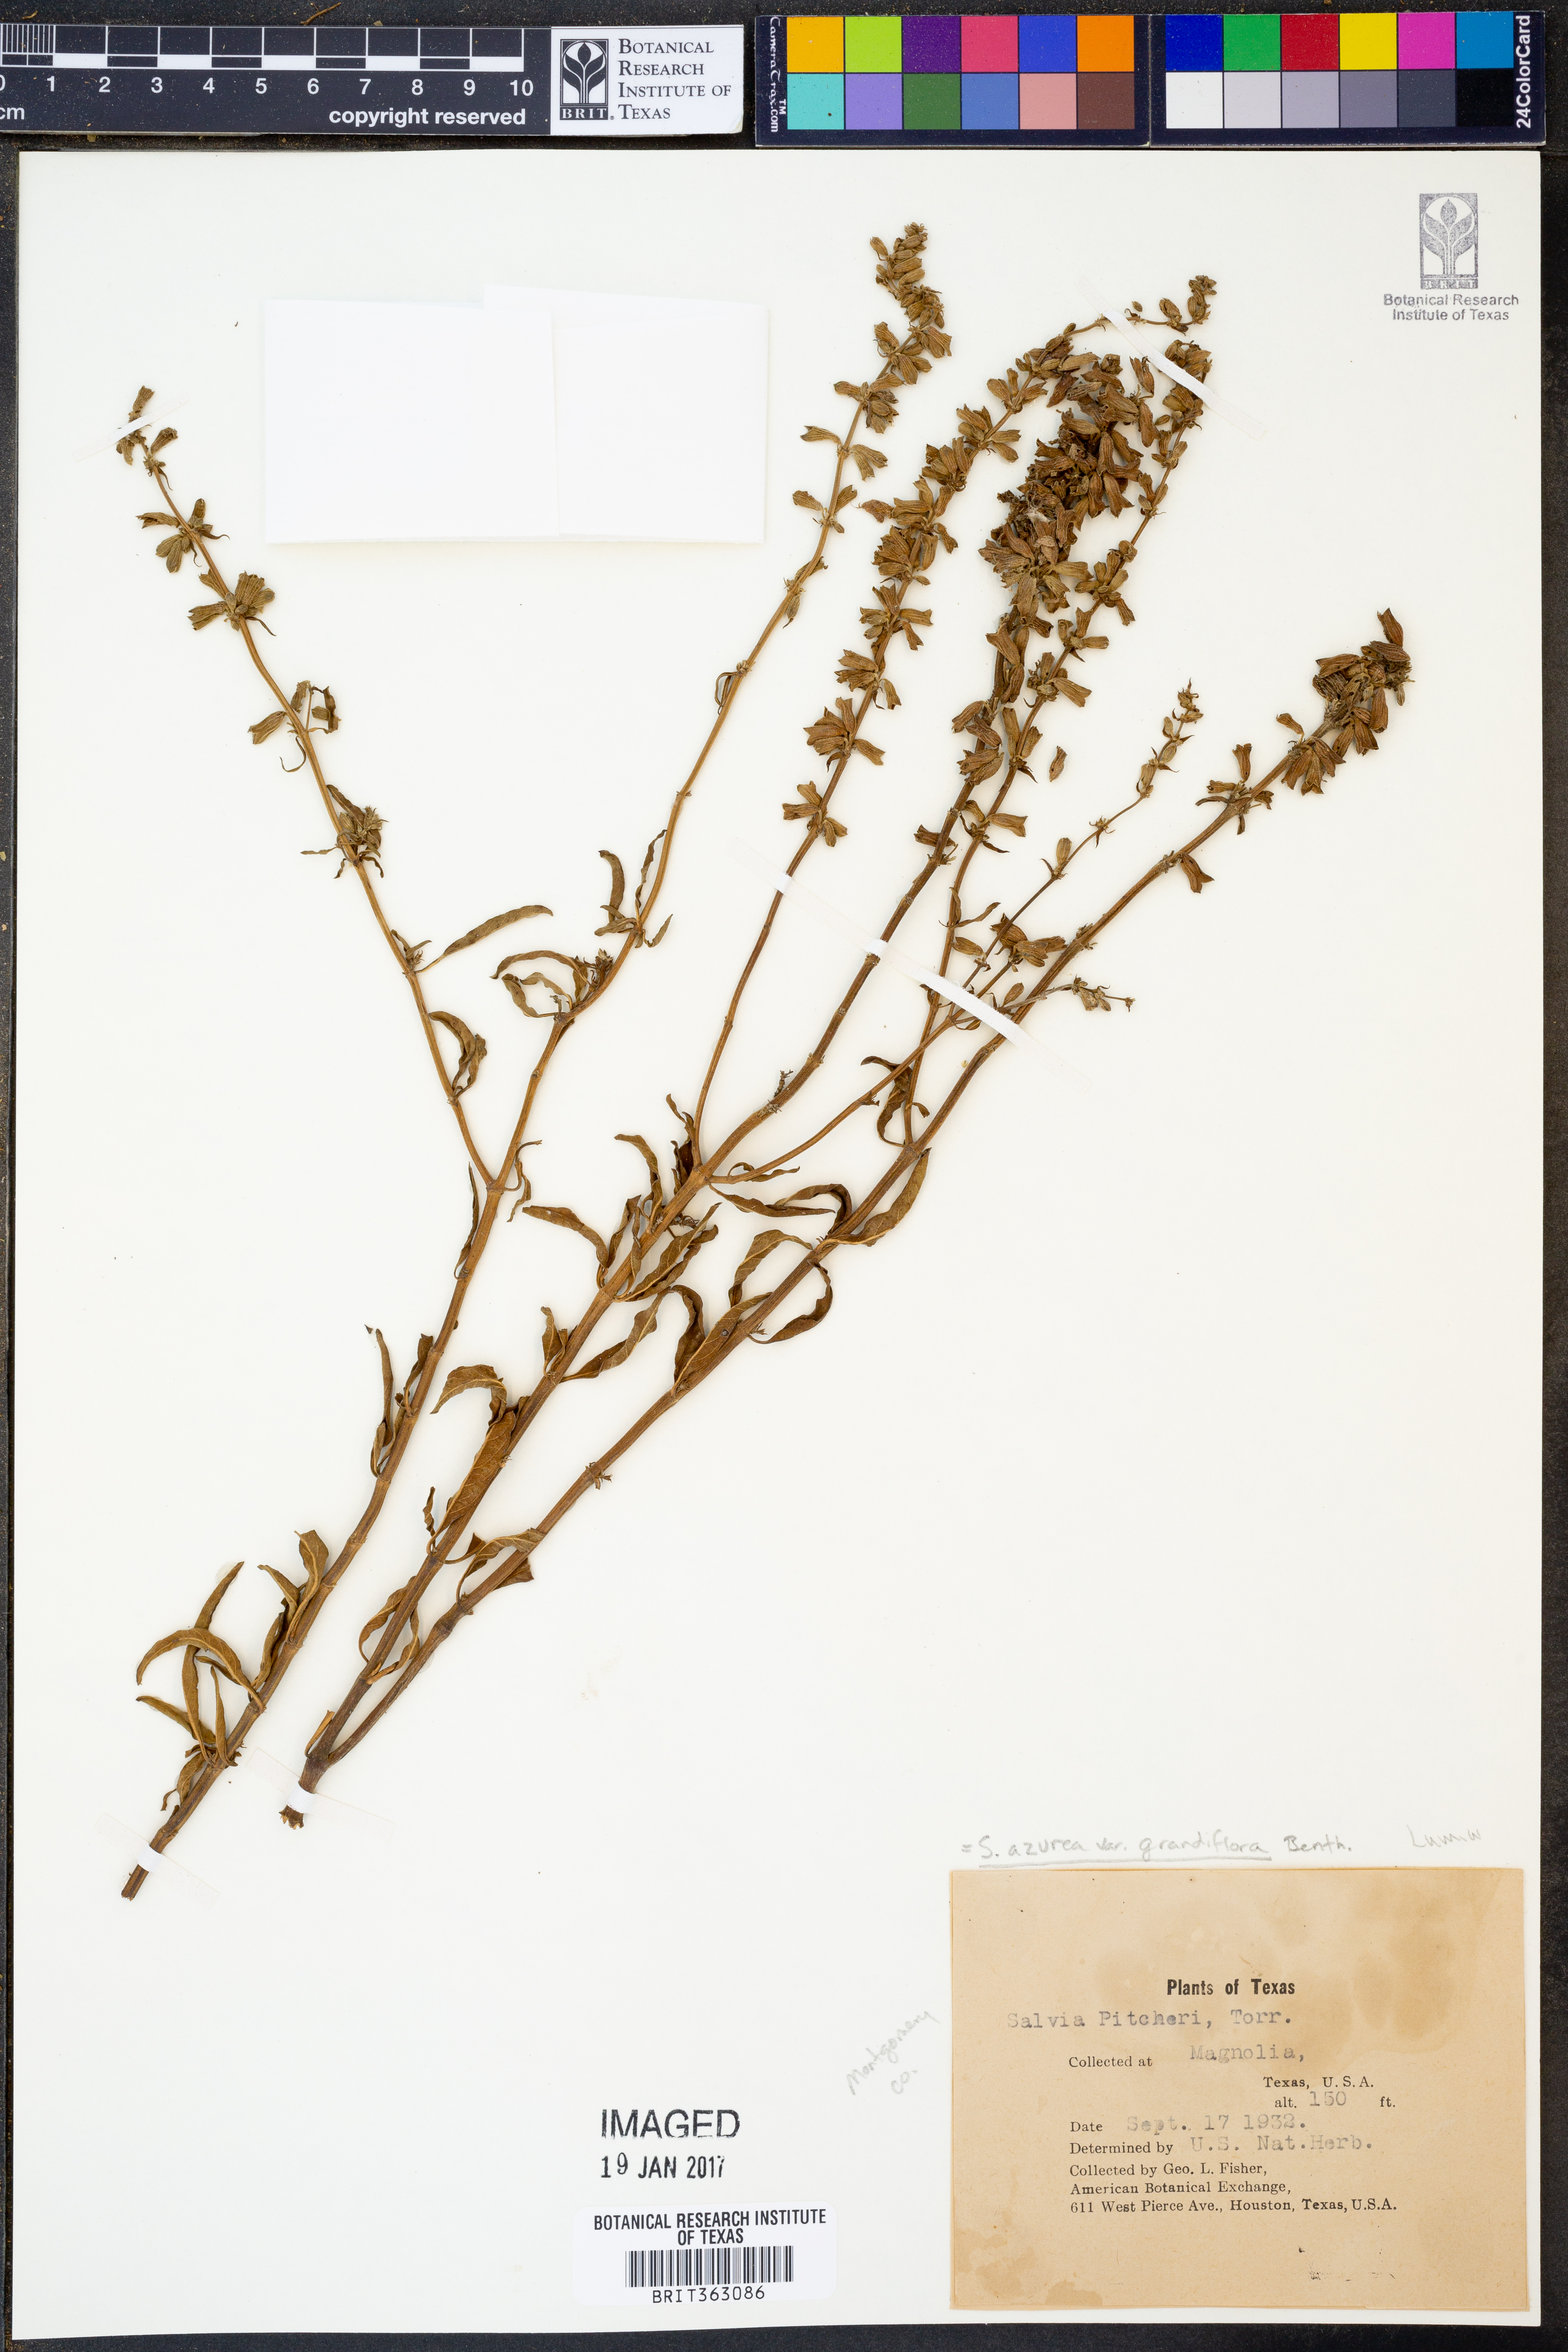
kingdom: Plantae
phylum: Tracheophyta
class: Magnoliopsida
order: Lamiales
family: Lamiaceae
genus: Salvia
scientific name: Salvia azurea
